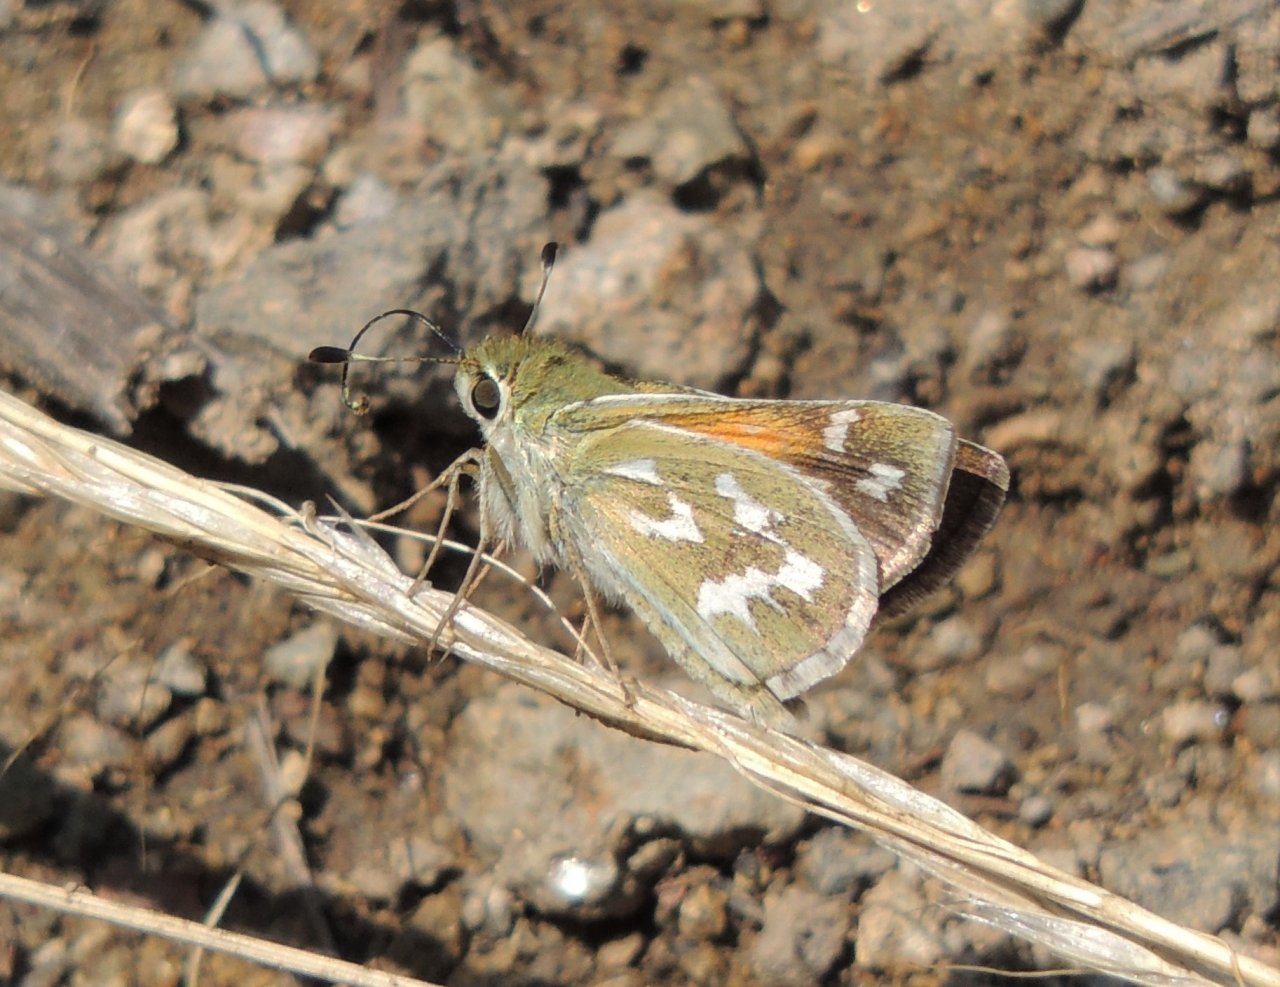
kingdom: Animalia
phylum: Arthropoda
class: Insecta
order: Lepidoptera
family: Hesperiidae
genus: Hesperia
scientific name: Hesperia comma
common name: Western Branded Skipper
